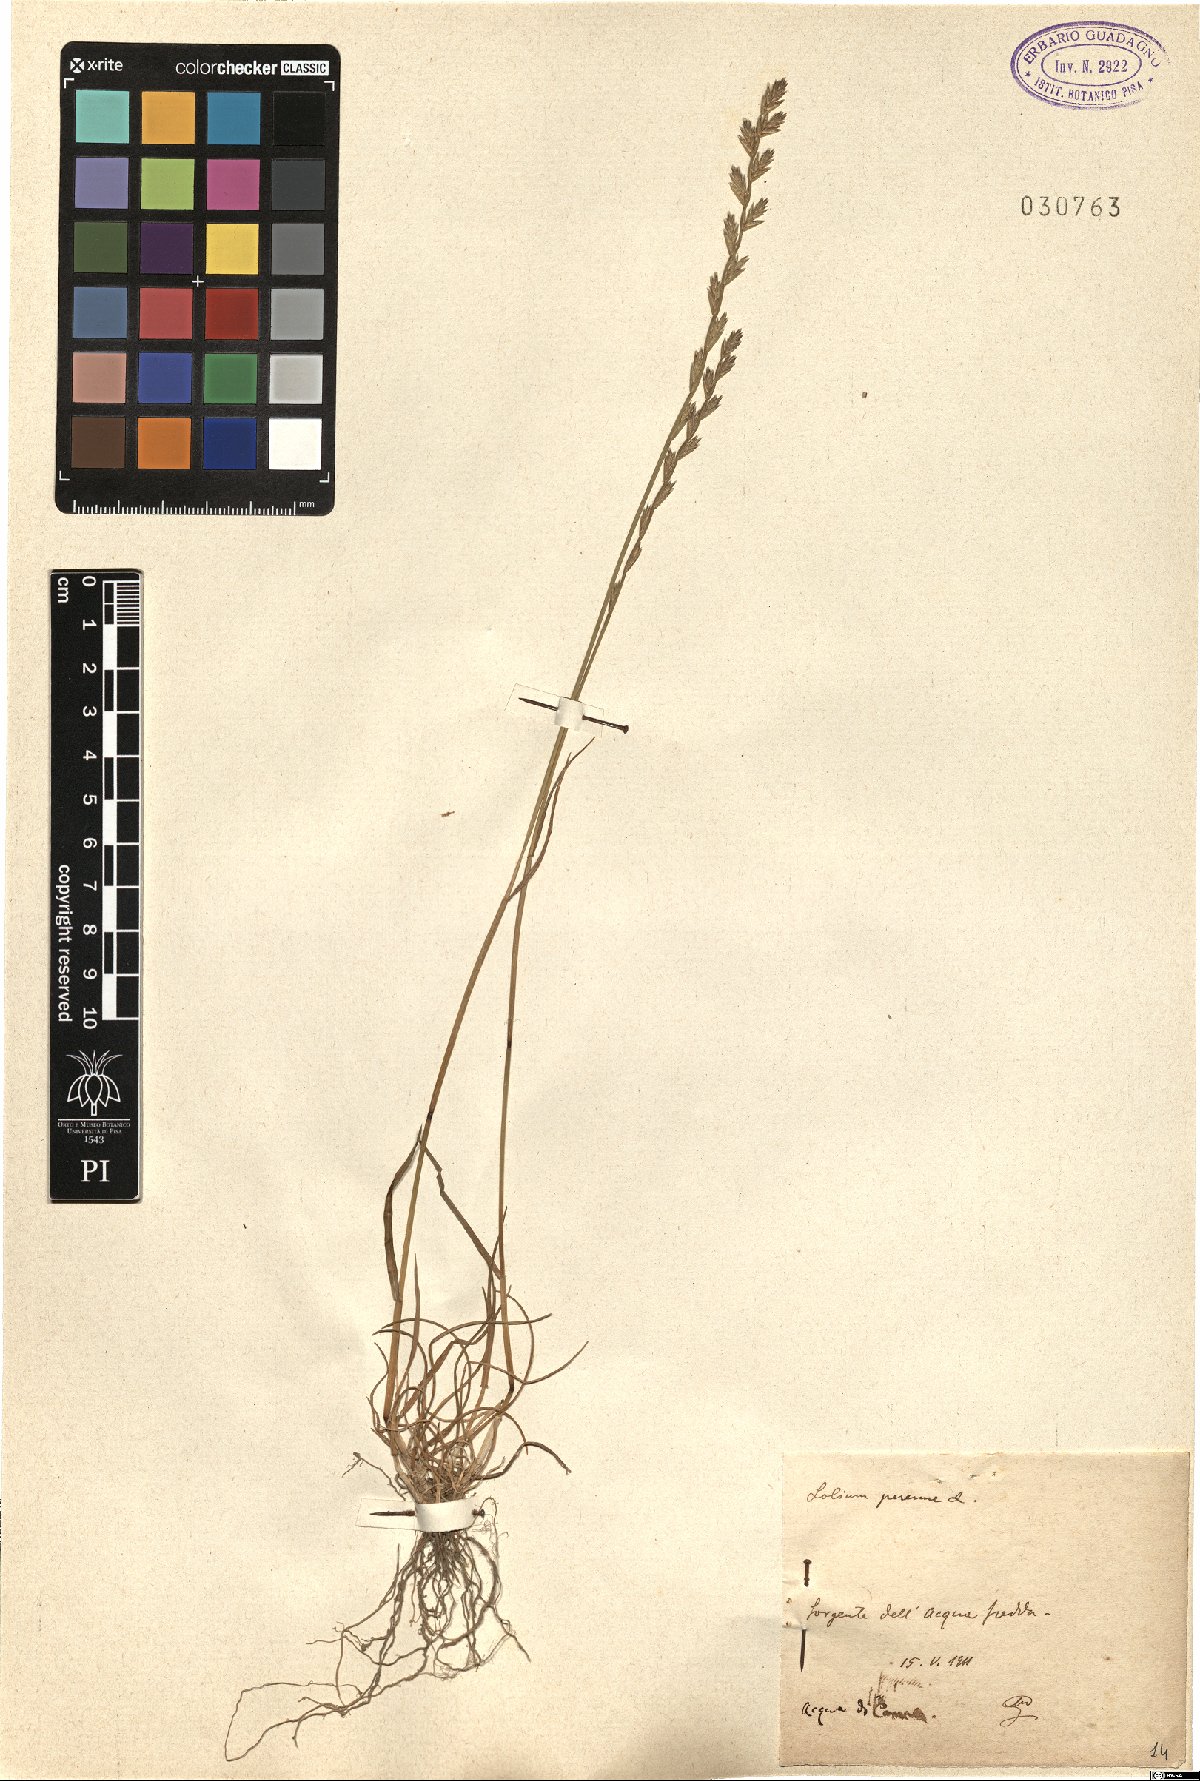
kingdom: Plantae
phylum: Tracheophyta
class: Liliopsida
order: Poales
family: Poaceae
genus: Lolium
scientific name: Lolium perenne
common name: Perennial ryegrass
